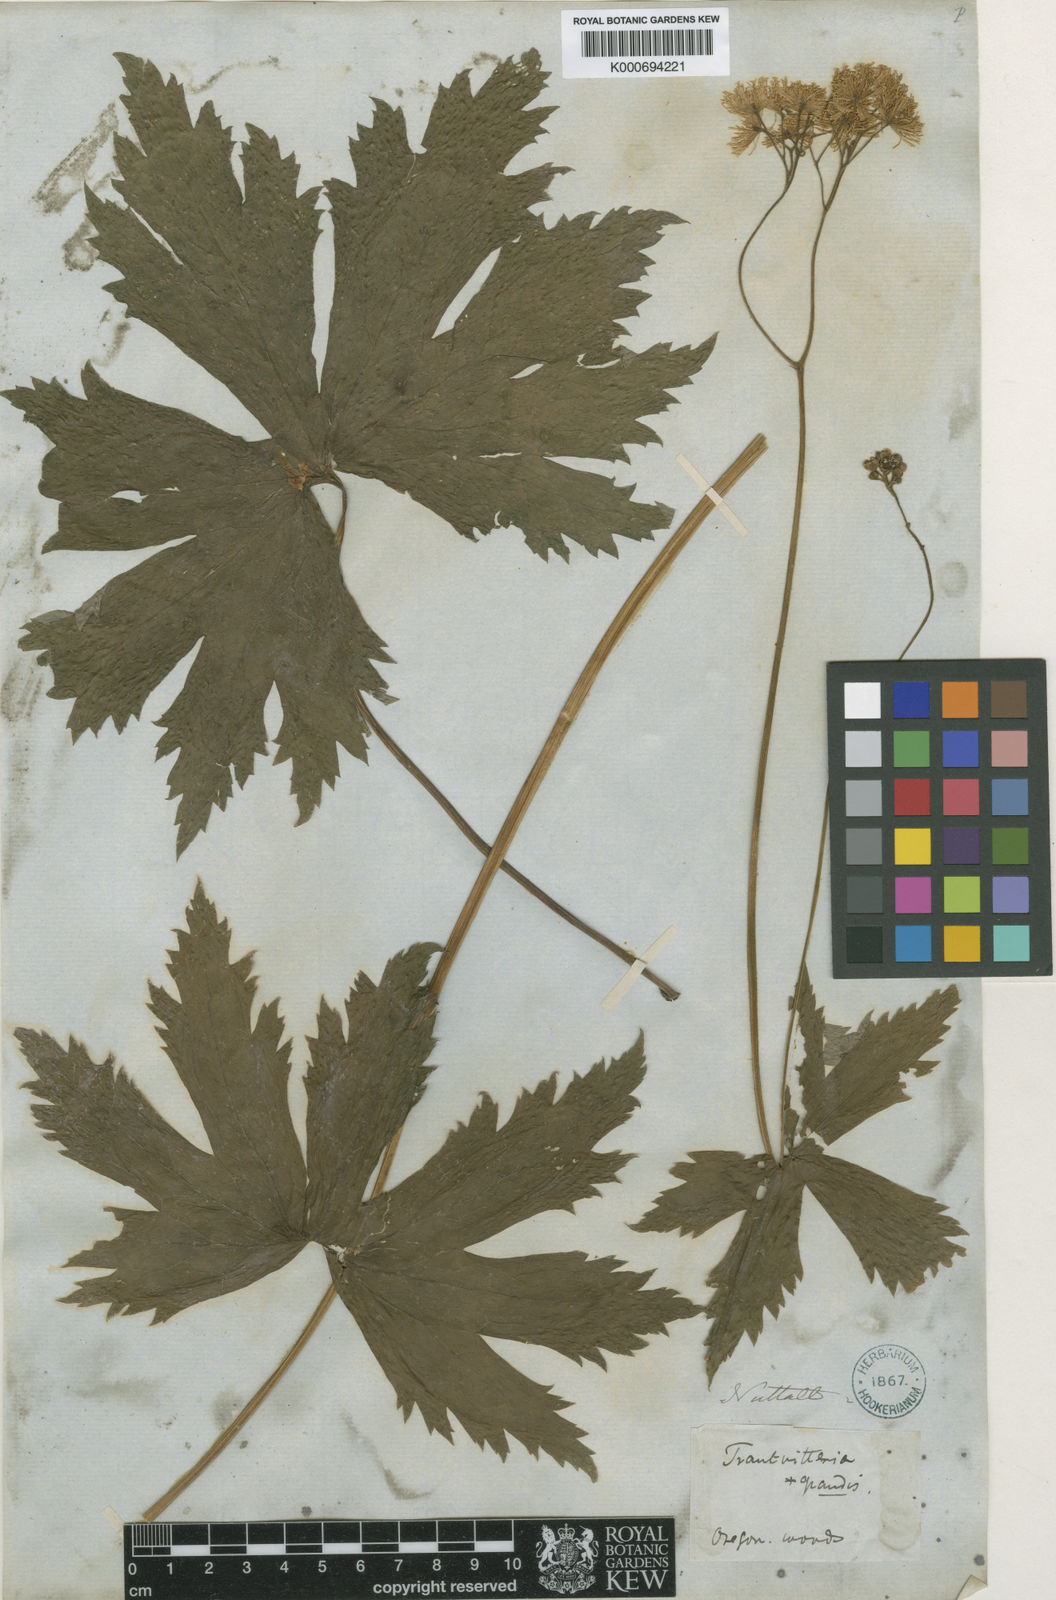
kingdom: Plantae
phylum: Tracheophyta
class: Magnoliopsida
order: Ranunculales
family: Ranunculaceae
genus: Trautvetteria
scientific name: Trautvetteria carolinensis
